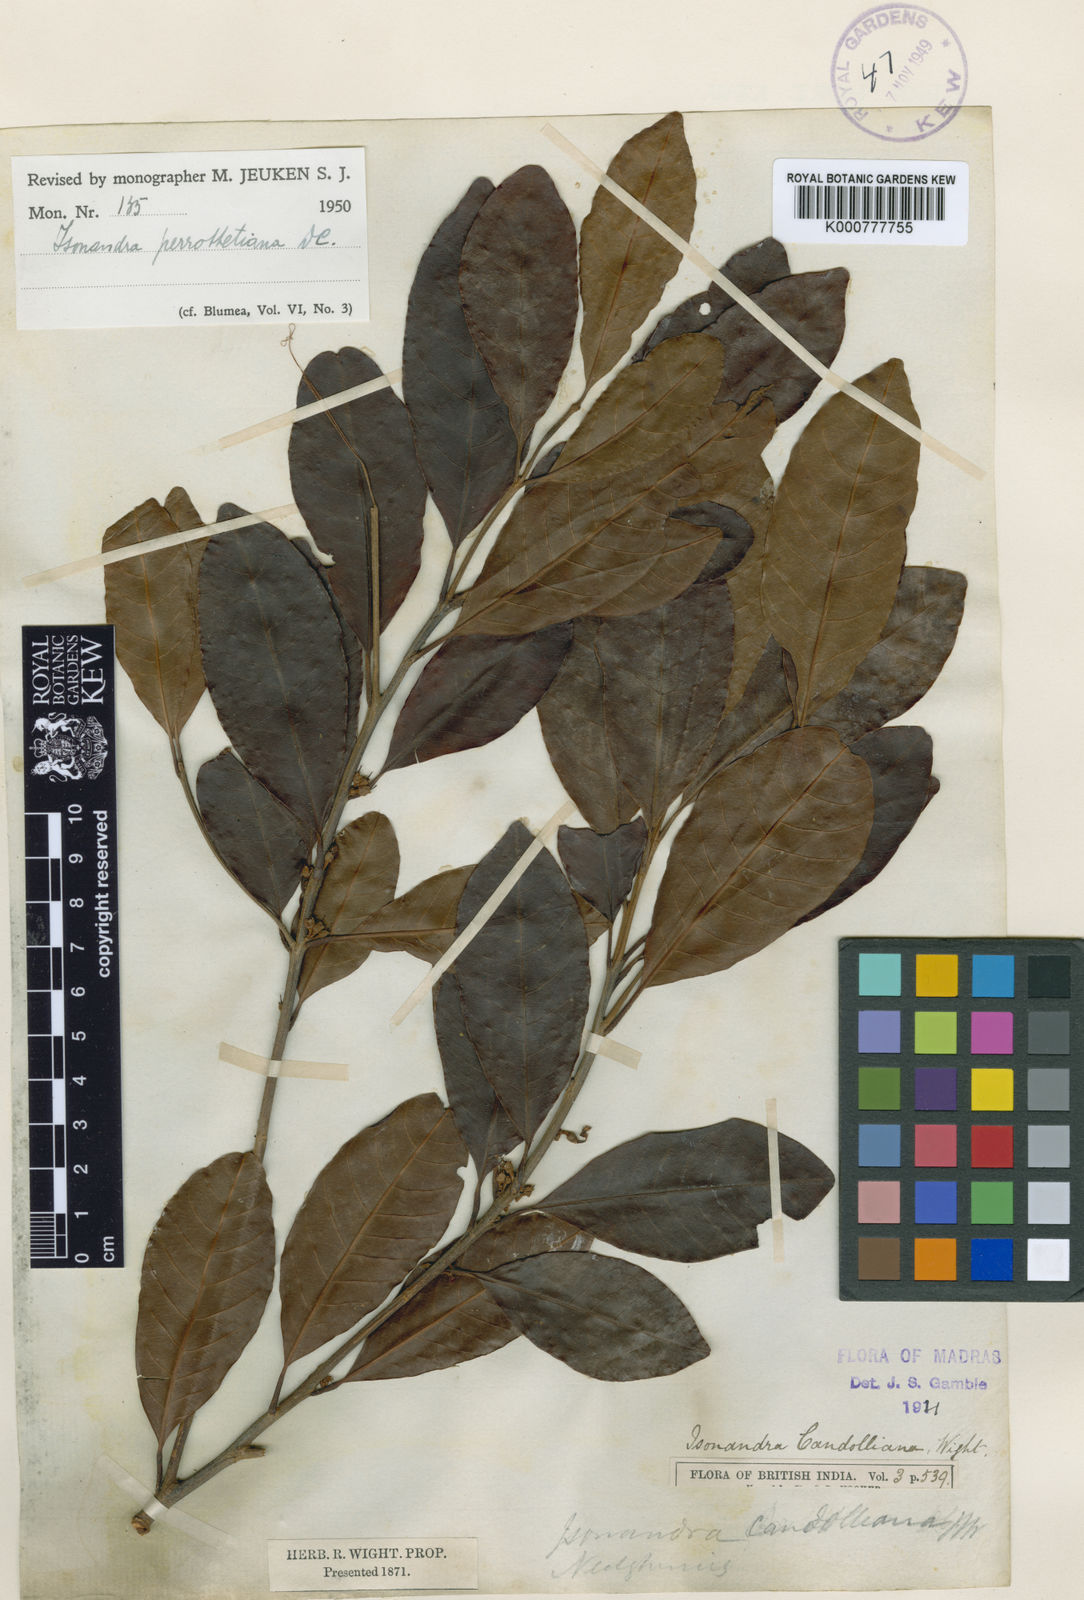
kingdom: Plantae
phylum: Tracheophyta
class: Magnoliopsida
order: Ericales
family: Sapotaceae
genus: Isonandra
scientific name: Isonandra perrottetiana
